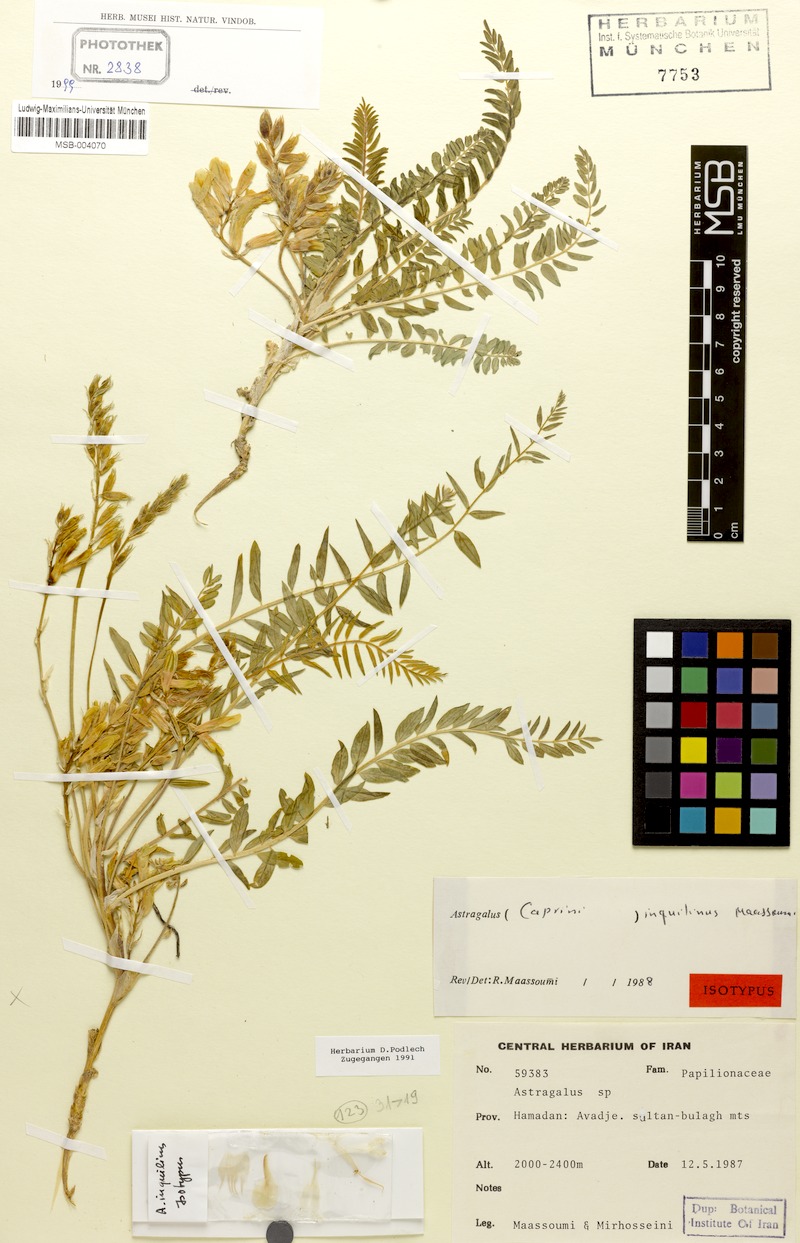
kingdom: Plantae
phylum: Tracheophyta
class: Magnoliopsida
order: Fabales
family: Fabaceae
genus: Astragalus
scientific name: Astragalus inquilinus
